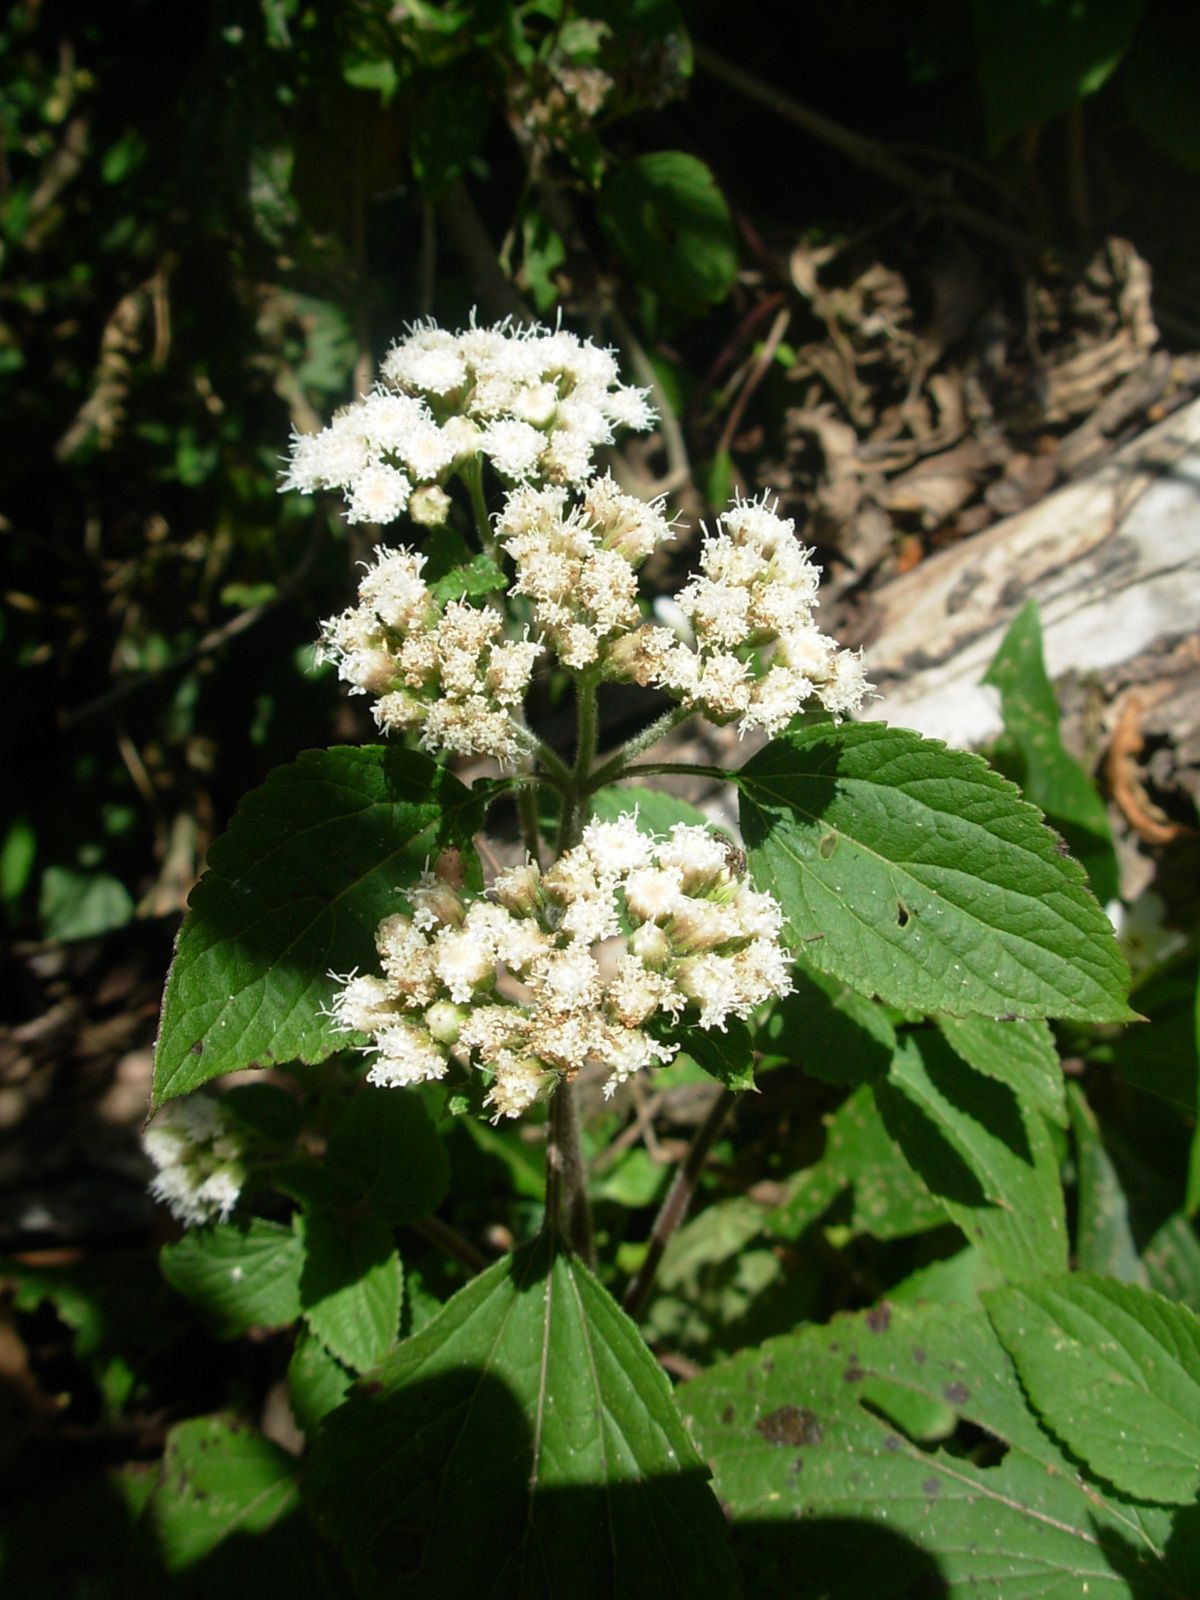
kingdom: Plantae
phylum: Tracheophyta
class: Magnoliopsida
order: Asterales
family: Asteraceae
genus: Ageratum
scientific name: Ageratum
